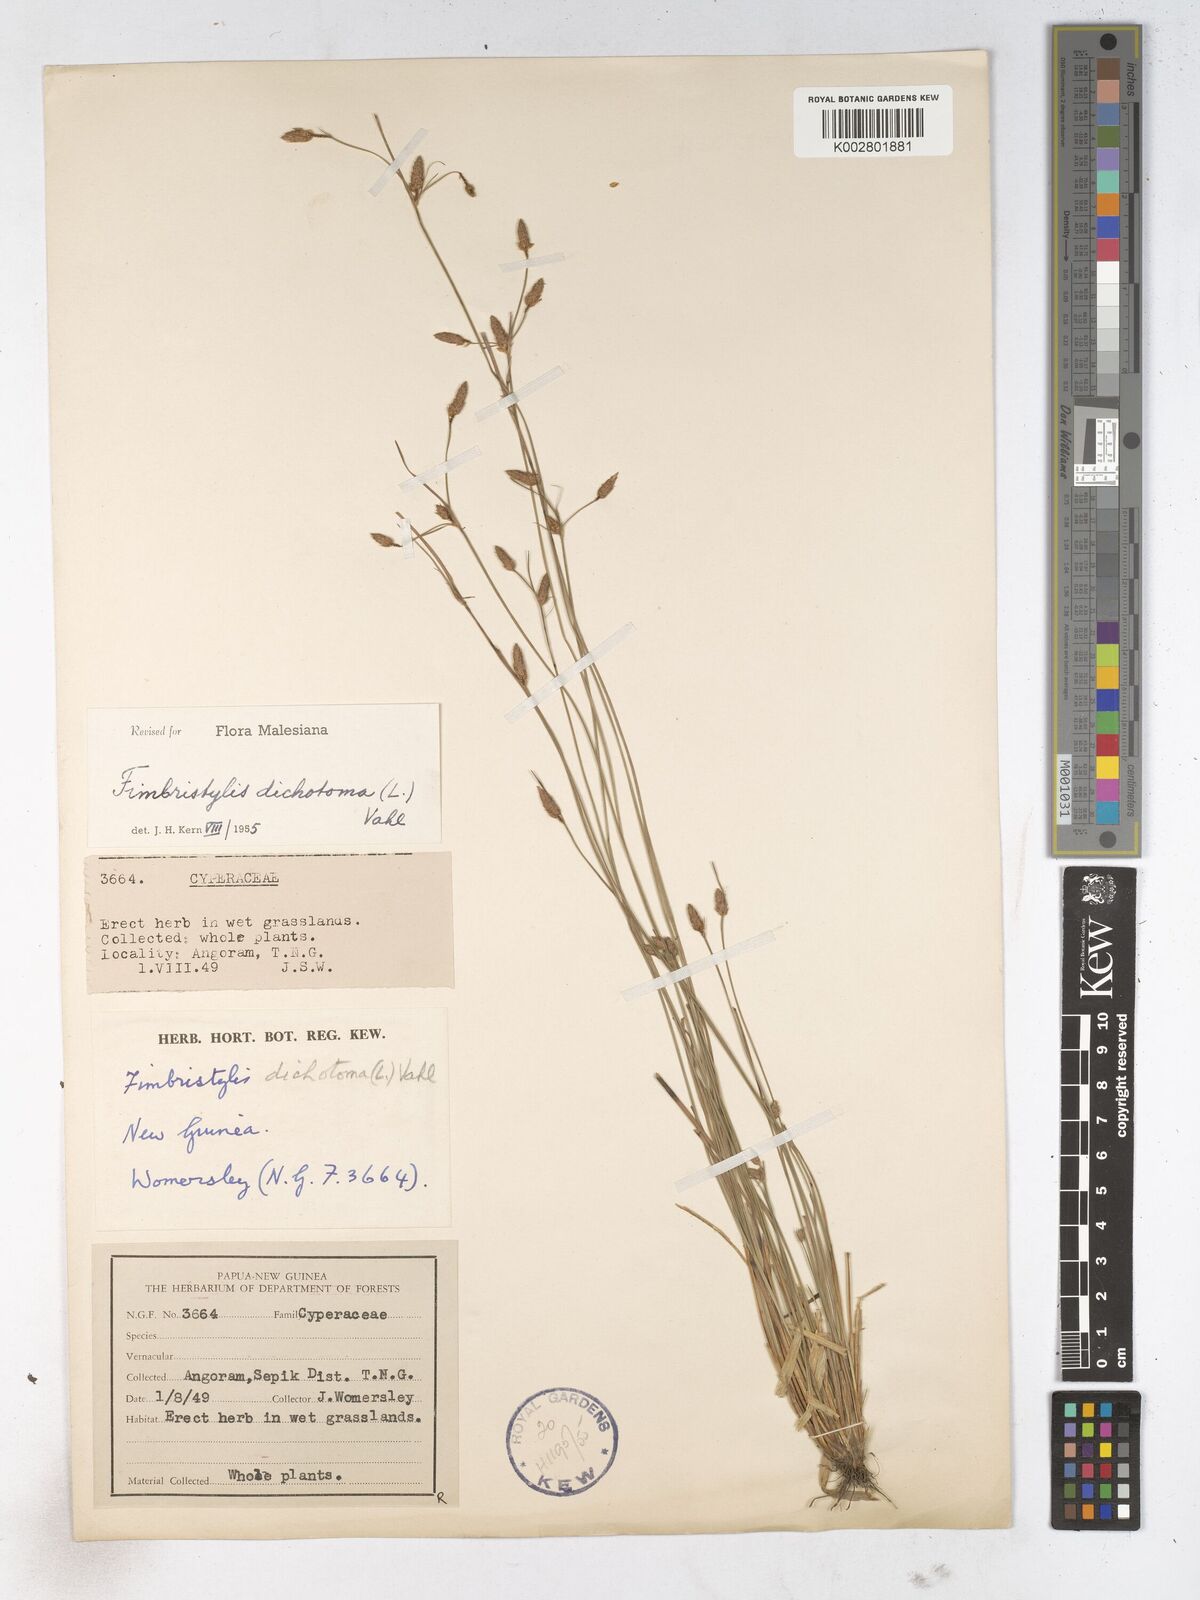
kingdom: Plantae
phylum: Tracheophyta
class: Liliopsida
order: Poales
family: Cyperaceae
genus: Fimbristylis
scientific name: Fimbristylis dichotoma
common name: Forked fimbry
